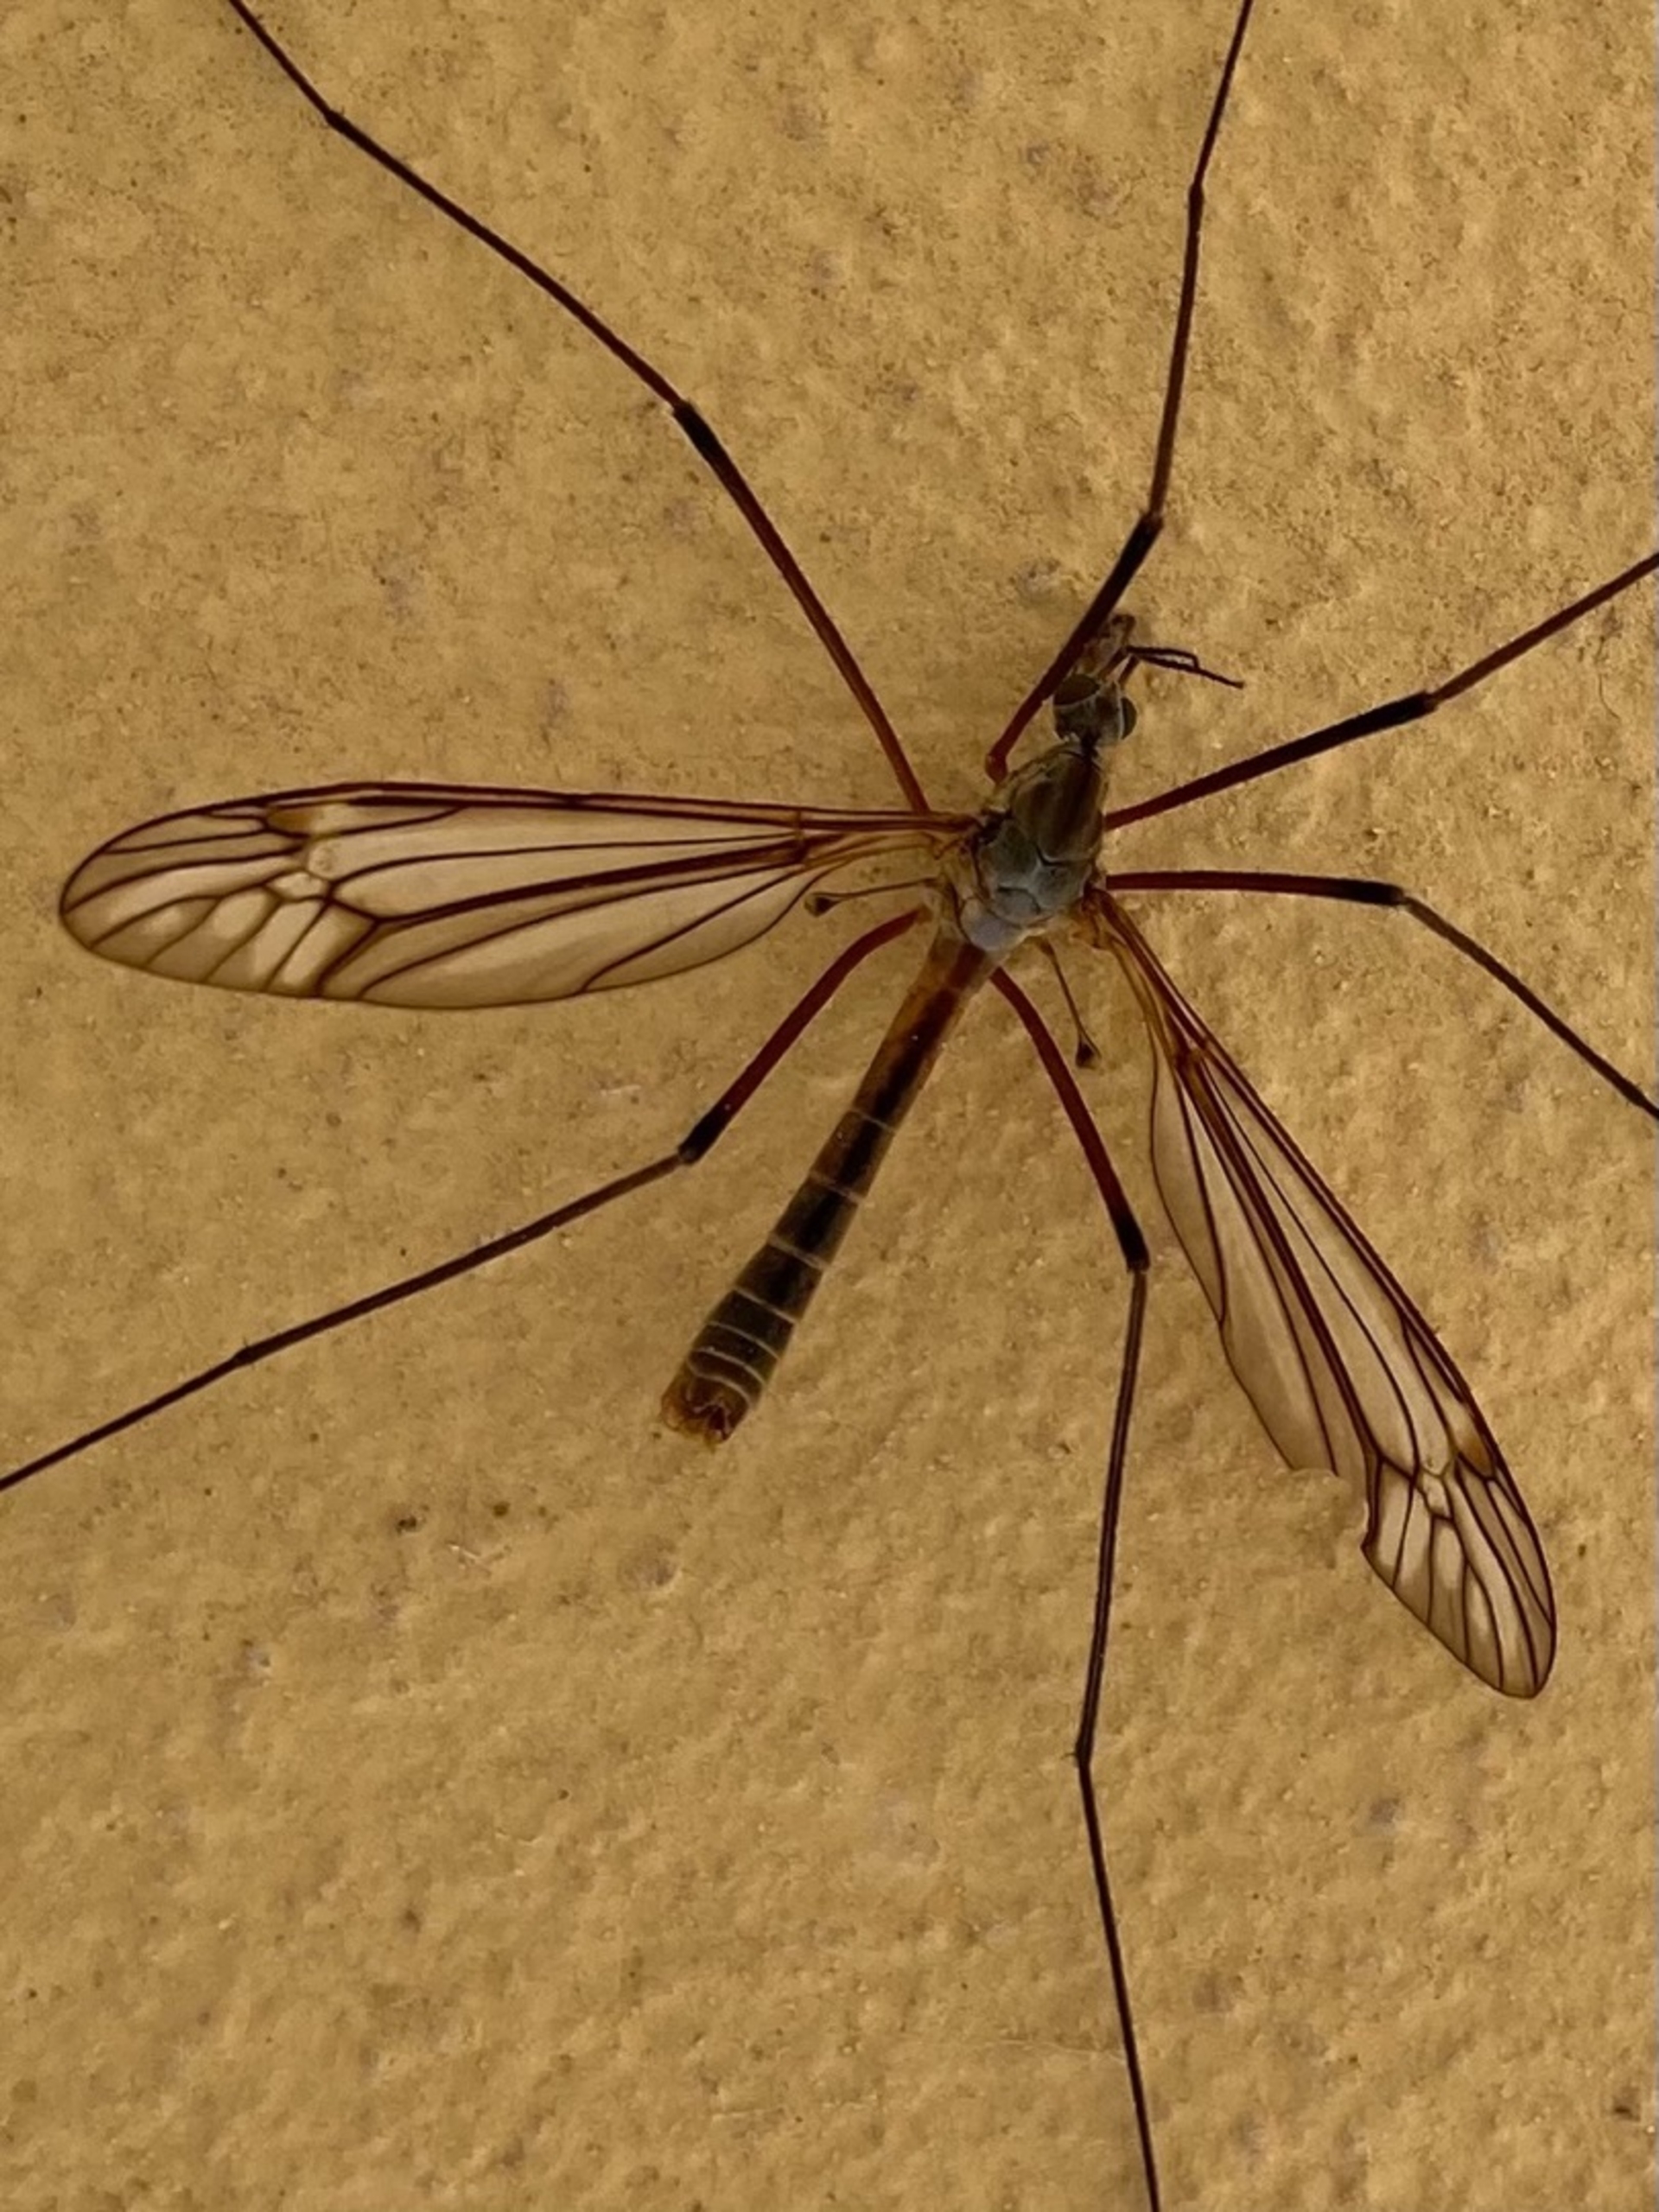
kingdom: Animalia
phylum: Arthropoda
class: Insecta
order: Diptera
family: Tipulidae
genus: Tipula
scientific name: Tipula vernalis
